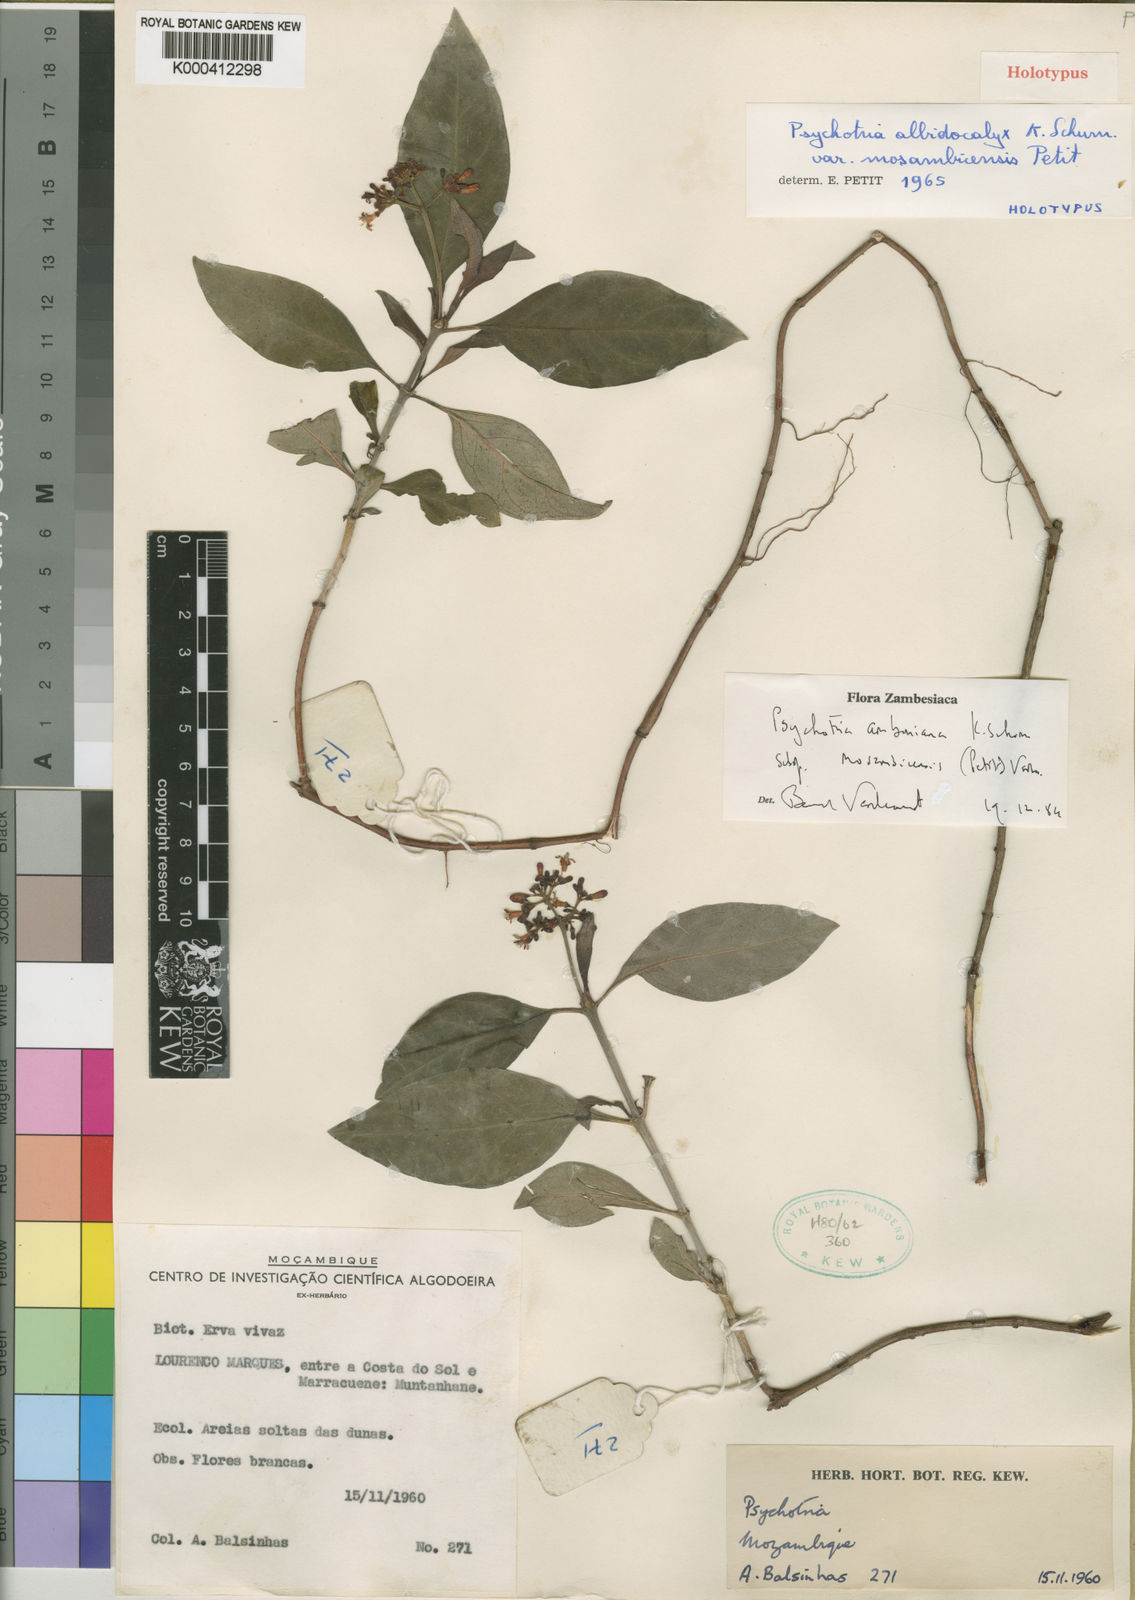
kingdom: Plantae
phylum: Tracheophyta
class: Magnoliopsida
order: Gentianales
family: Rubiaceae
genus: Psychotria
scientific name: Psychotria amboniana
